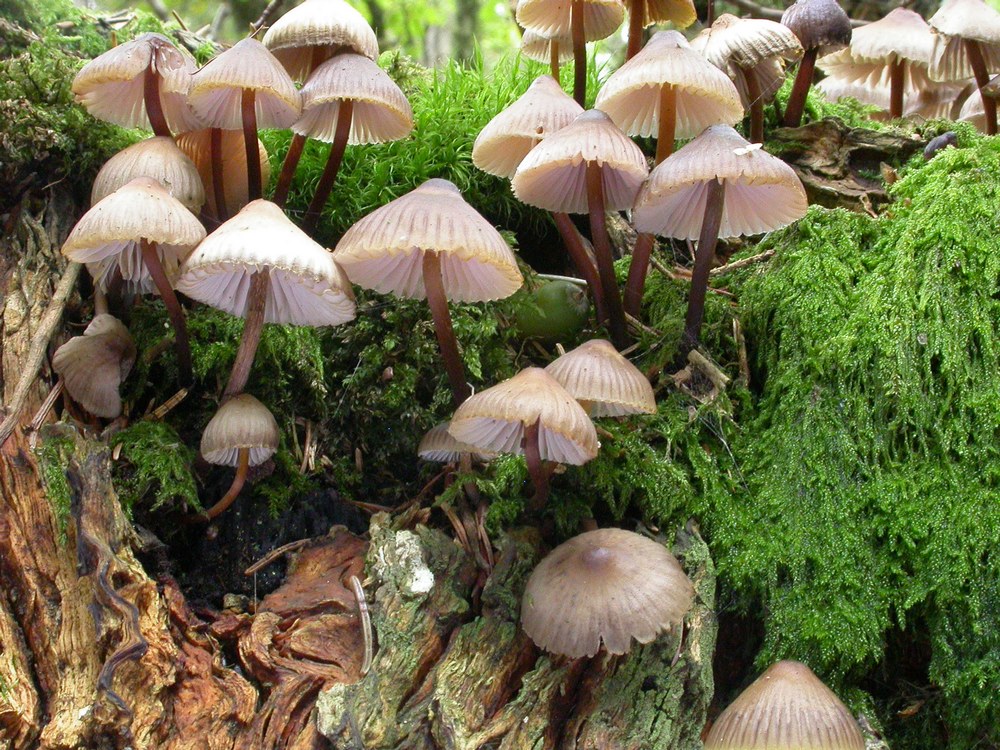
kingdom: Fungi
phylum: Basidiomycota
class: Agaricomycetes
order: Agaricales
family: Mycenaceae
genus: Mycena
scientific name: Mycena inclinata
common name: nikkende huesvamp
